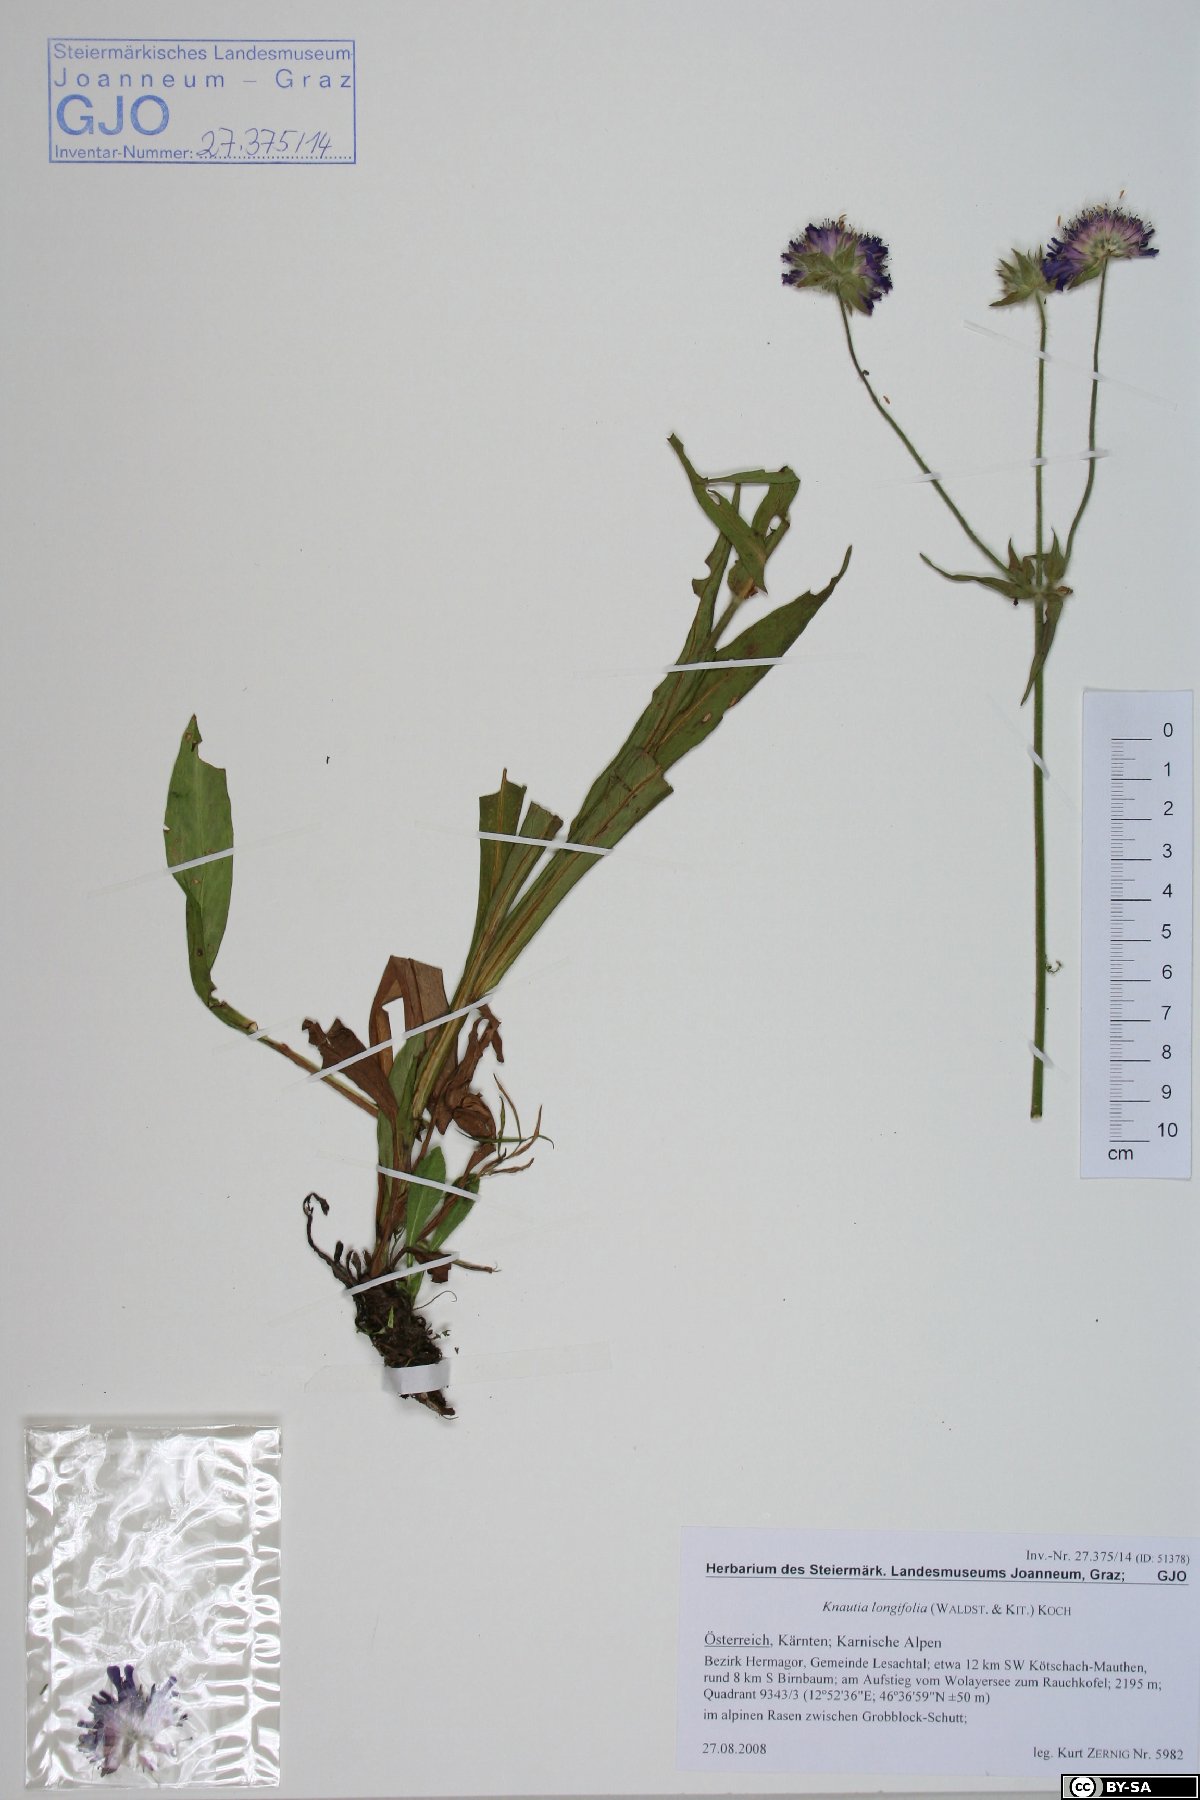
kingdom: Plantae
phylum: Tracheophyta
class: Magnoliopsida
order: Dipsacales
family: Caprifoliaceae
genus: Knautia
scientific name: Knautia longifolia
